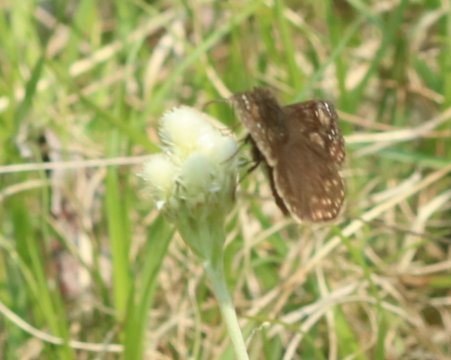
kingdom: Animalia
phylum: Arthropoda
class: Insecta
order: Lepidoptera
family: Hesperiidae
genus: Gesta
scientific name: Gesta
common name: Juvenal's Duskywing
